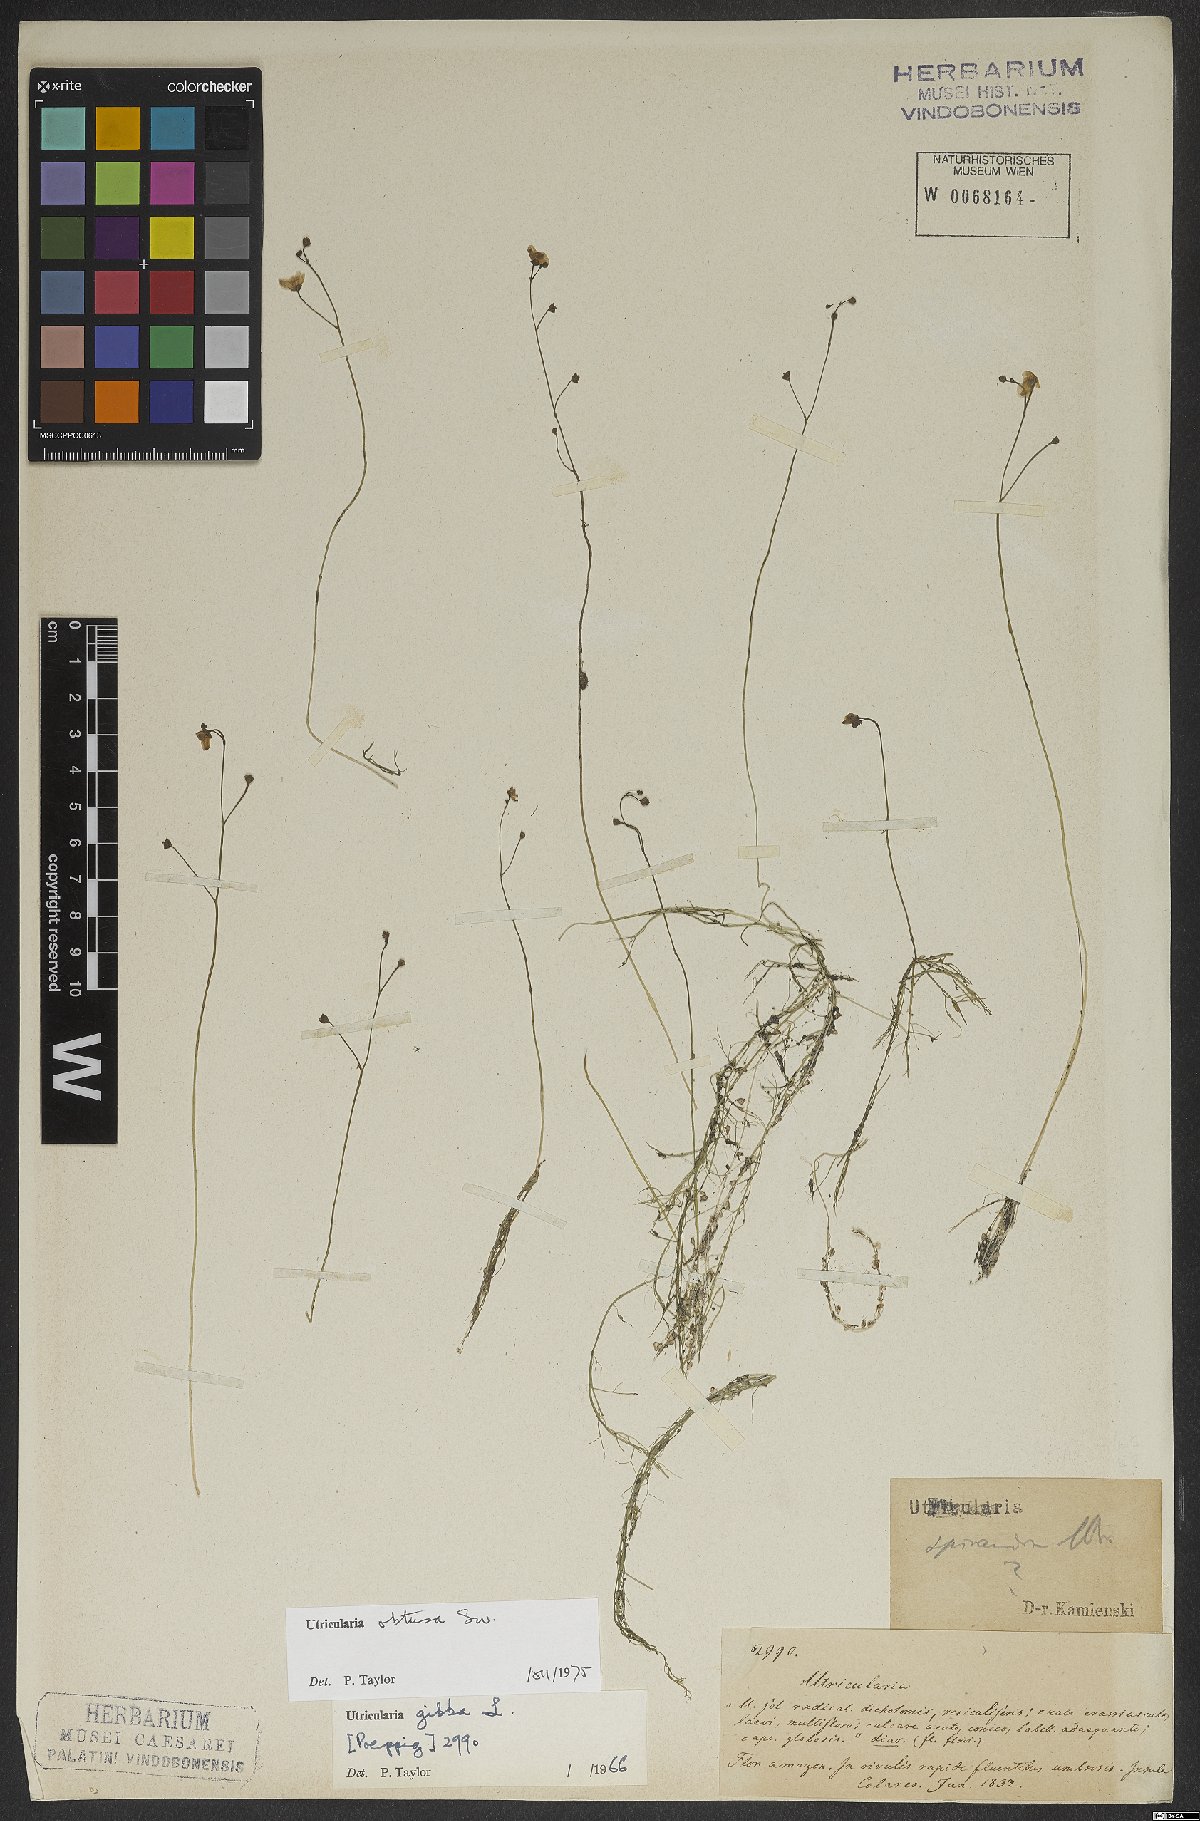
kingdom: Plantae
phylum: Tracheophyta
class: Magnoliopsida
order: Lamiales
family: Lentibulariaceae
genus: Utricularia
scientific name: Utricularia gibba
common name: Humped bladderwort
